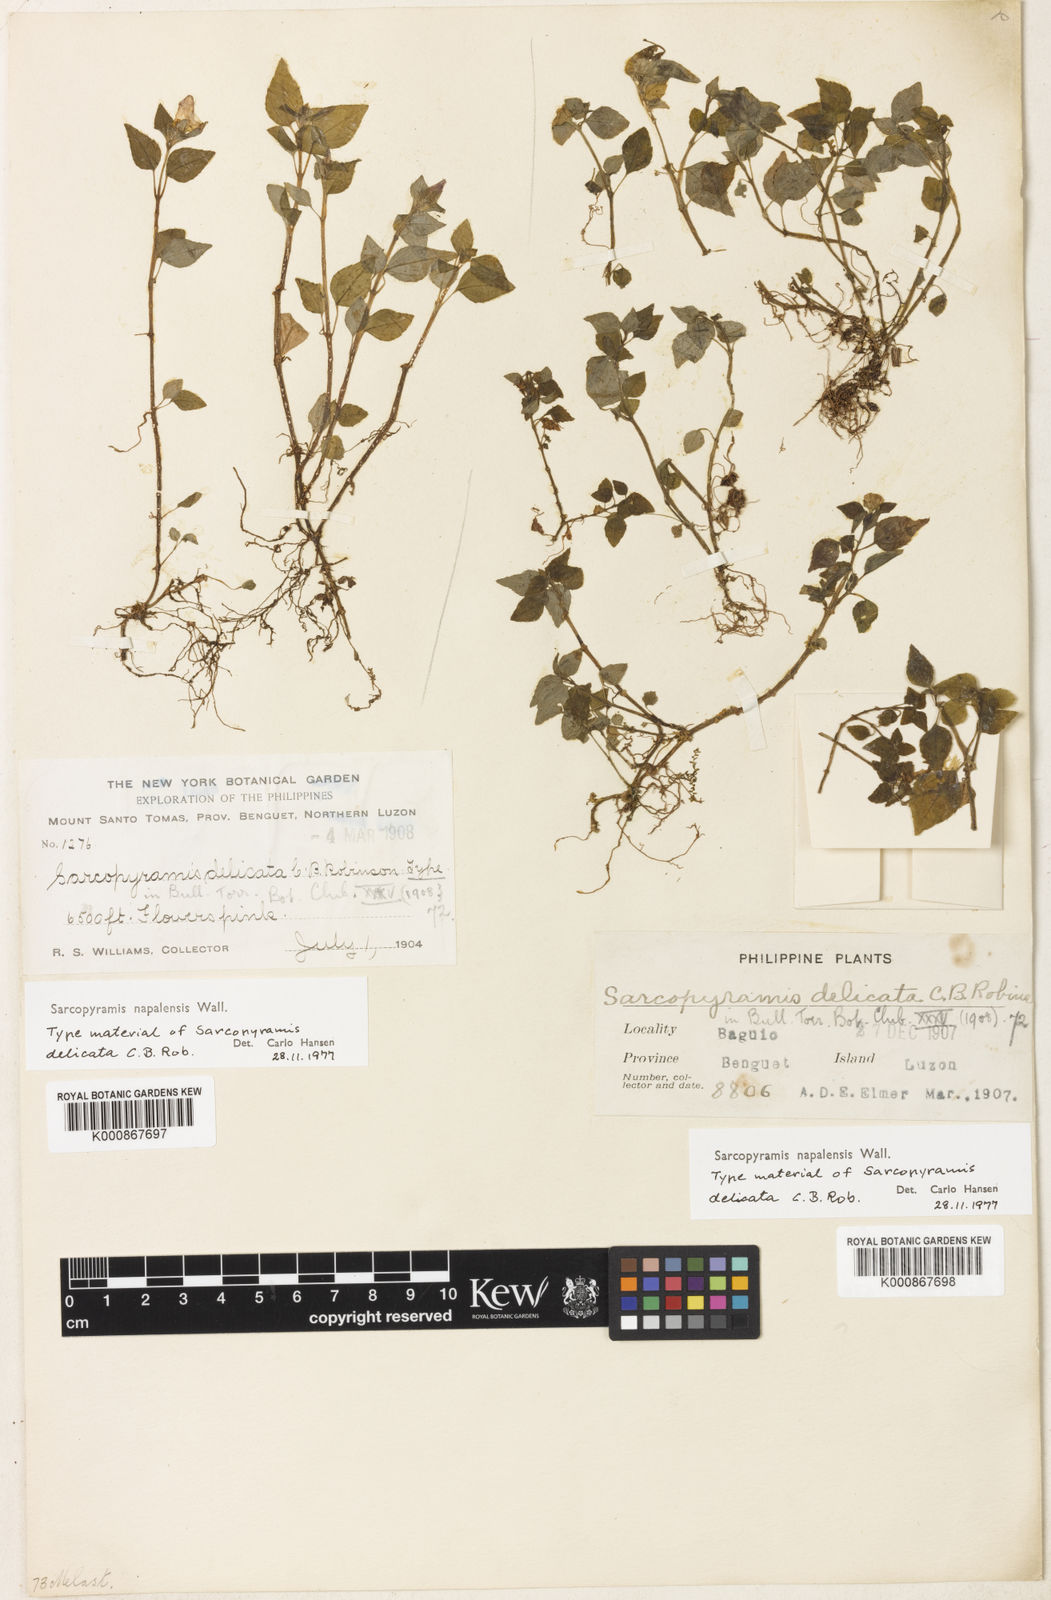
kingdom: Plantae
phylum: Tracheophyta
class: Magnoliopsida
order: Myrtales
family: Melastomataceae
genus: Sarcopyramis
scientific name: Sarcopyramis napalensis
